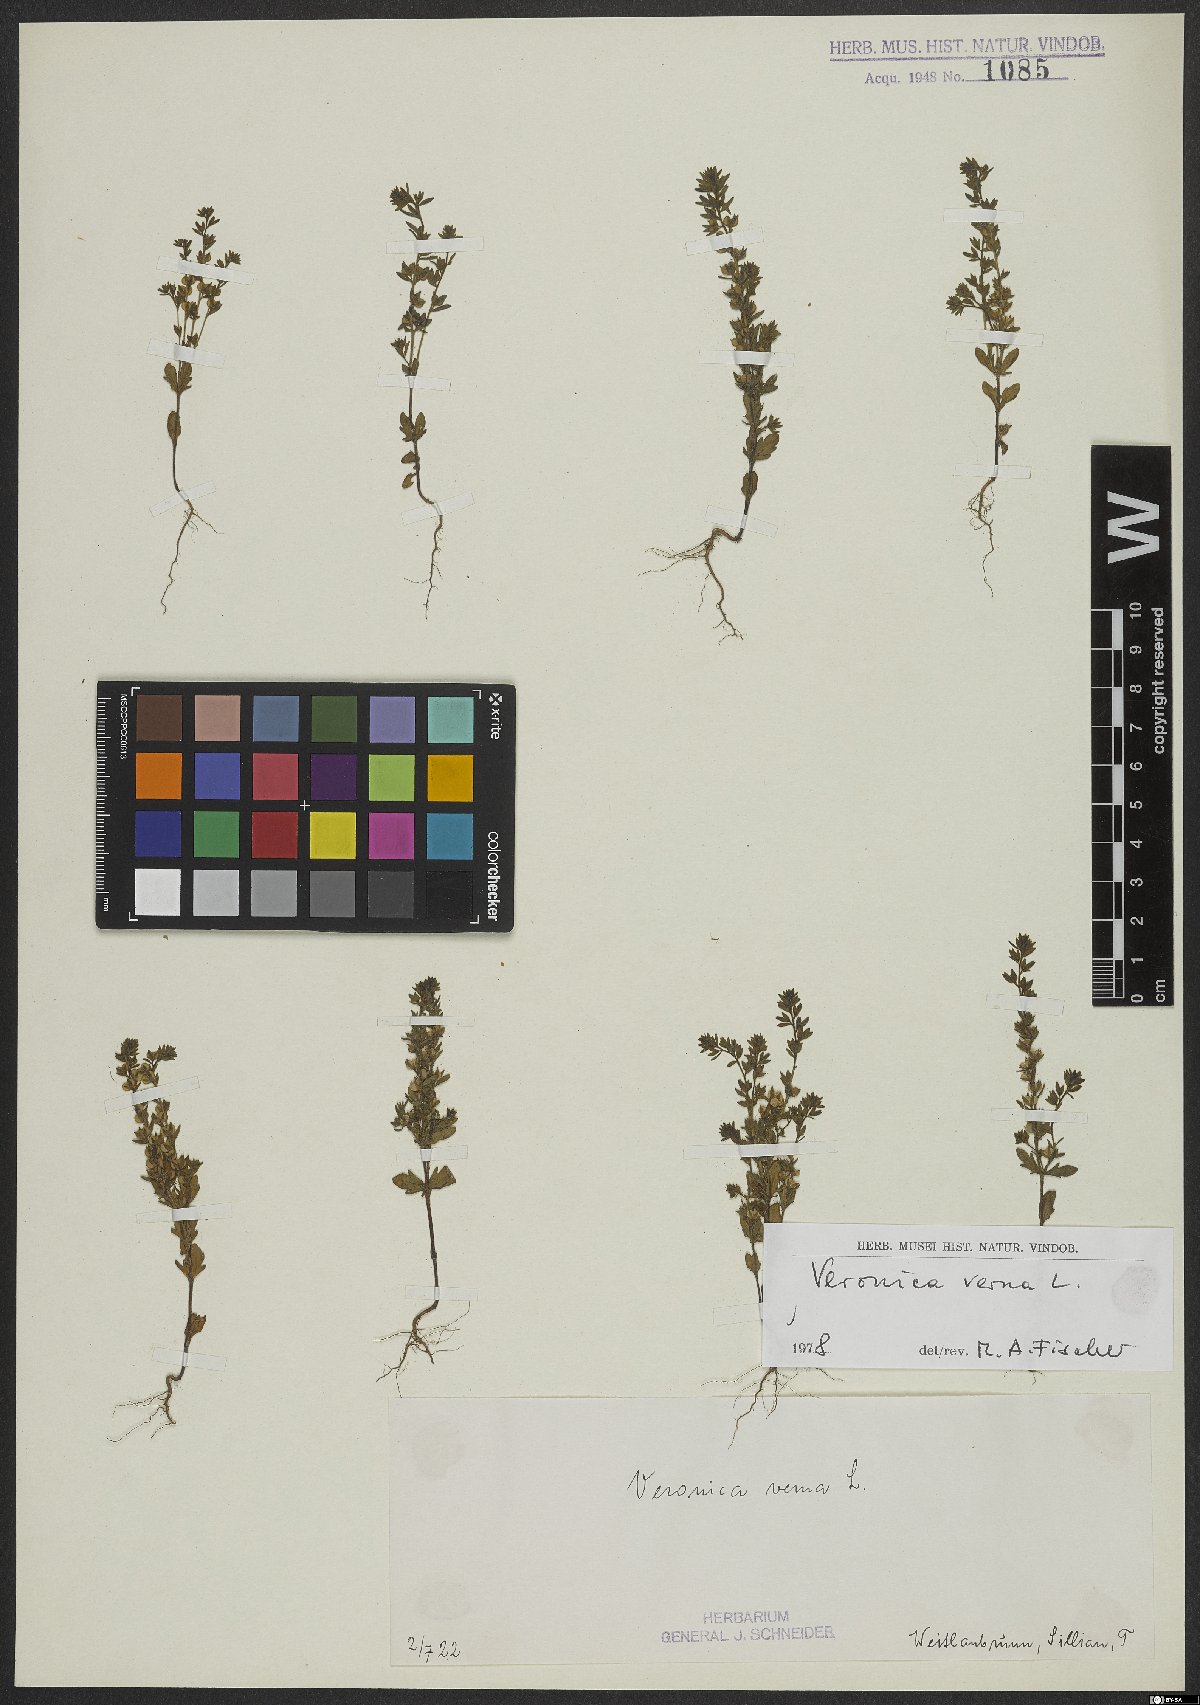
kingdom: Plantae
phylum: Tracheophyta
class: Magnoliopsida
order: Lamiales
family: Plantaginaceae
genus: Veronica
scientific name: Veronica verna
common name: Spring speedwell
